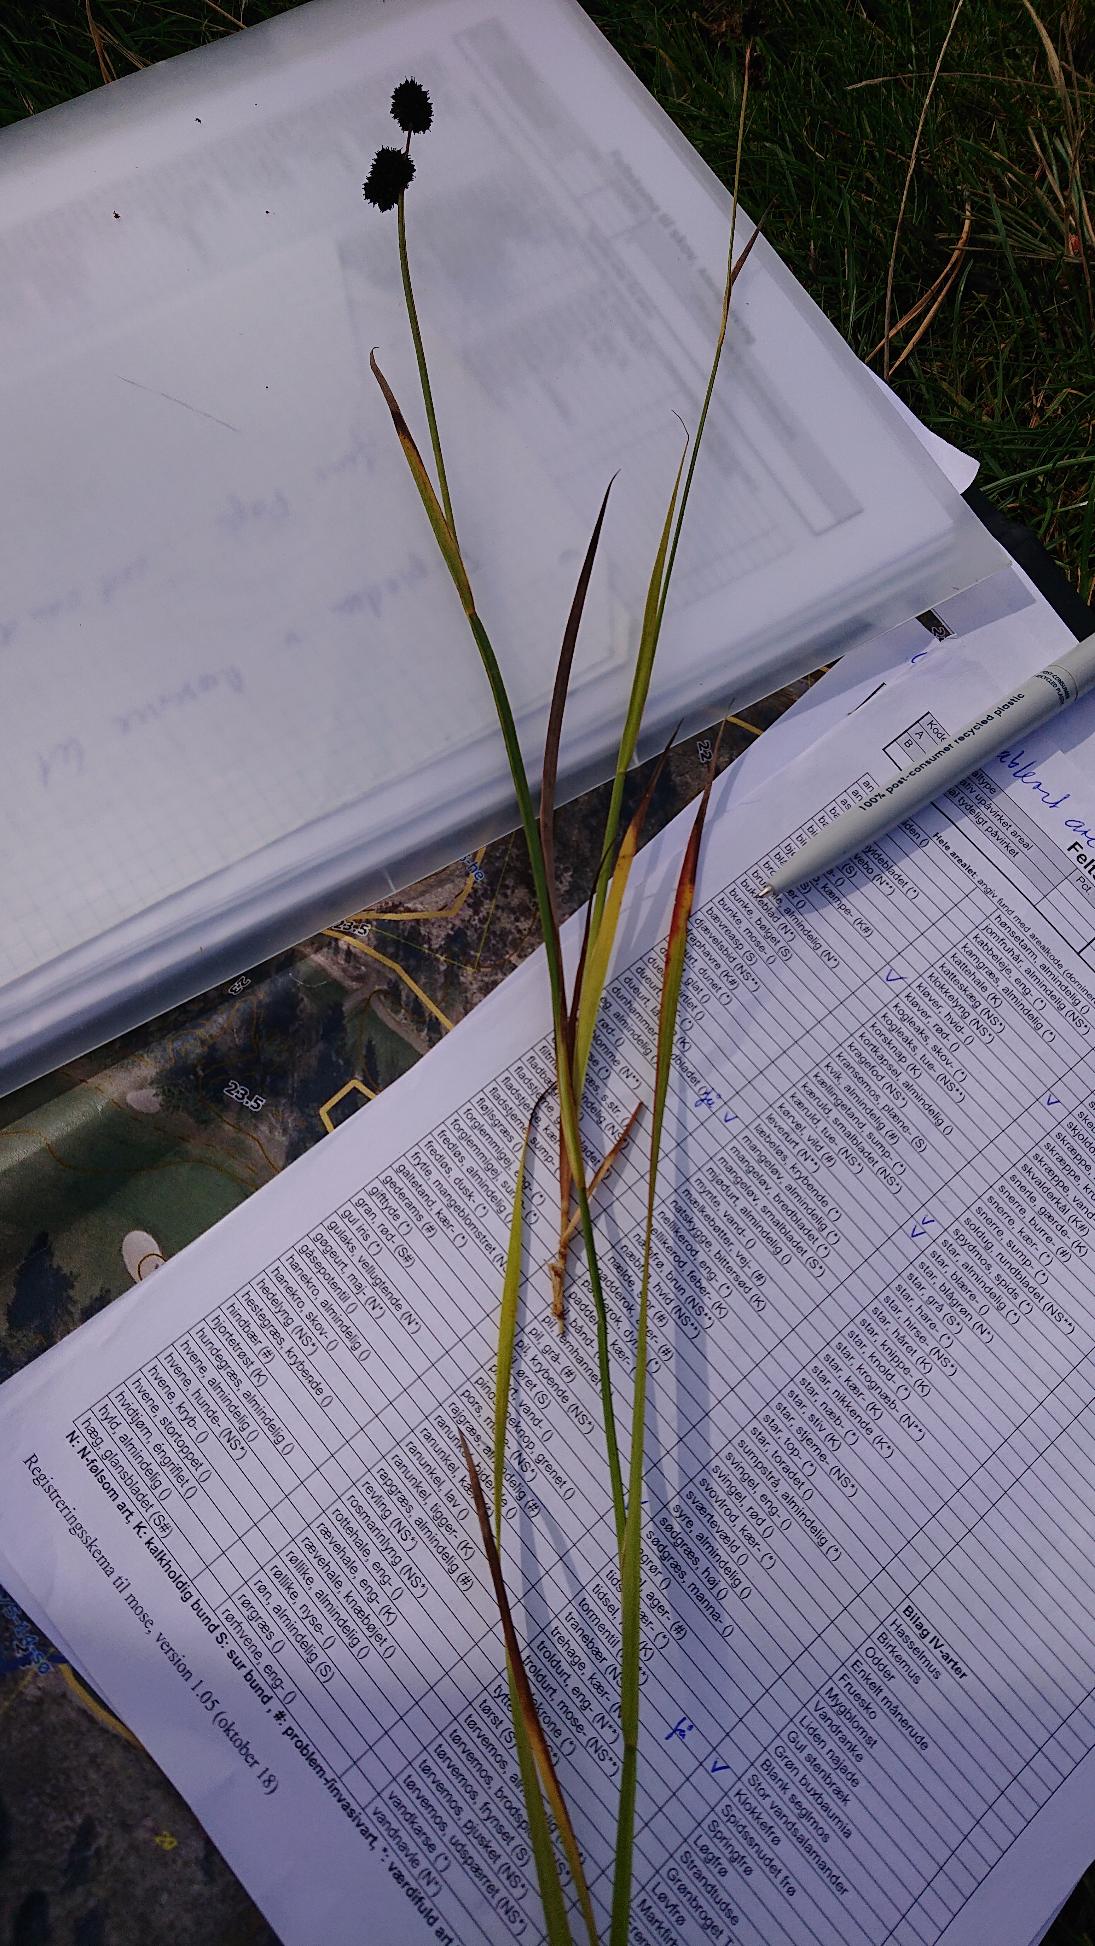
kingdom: Plantae
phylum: Tracheophyta
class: Liliopsida
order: Poales
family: Juncaceae
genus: Juncus
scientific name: Juncus ensifolius
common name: Sværd-siv
